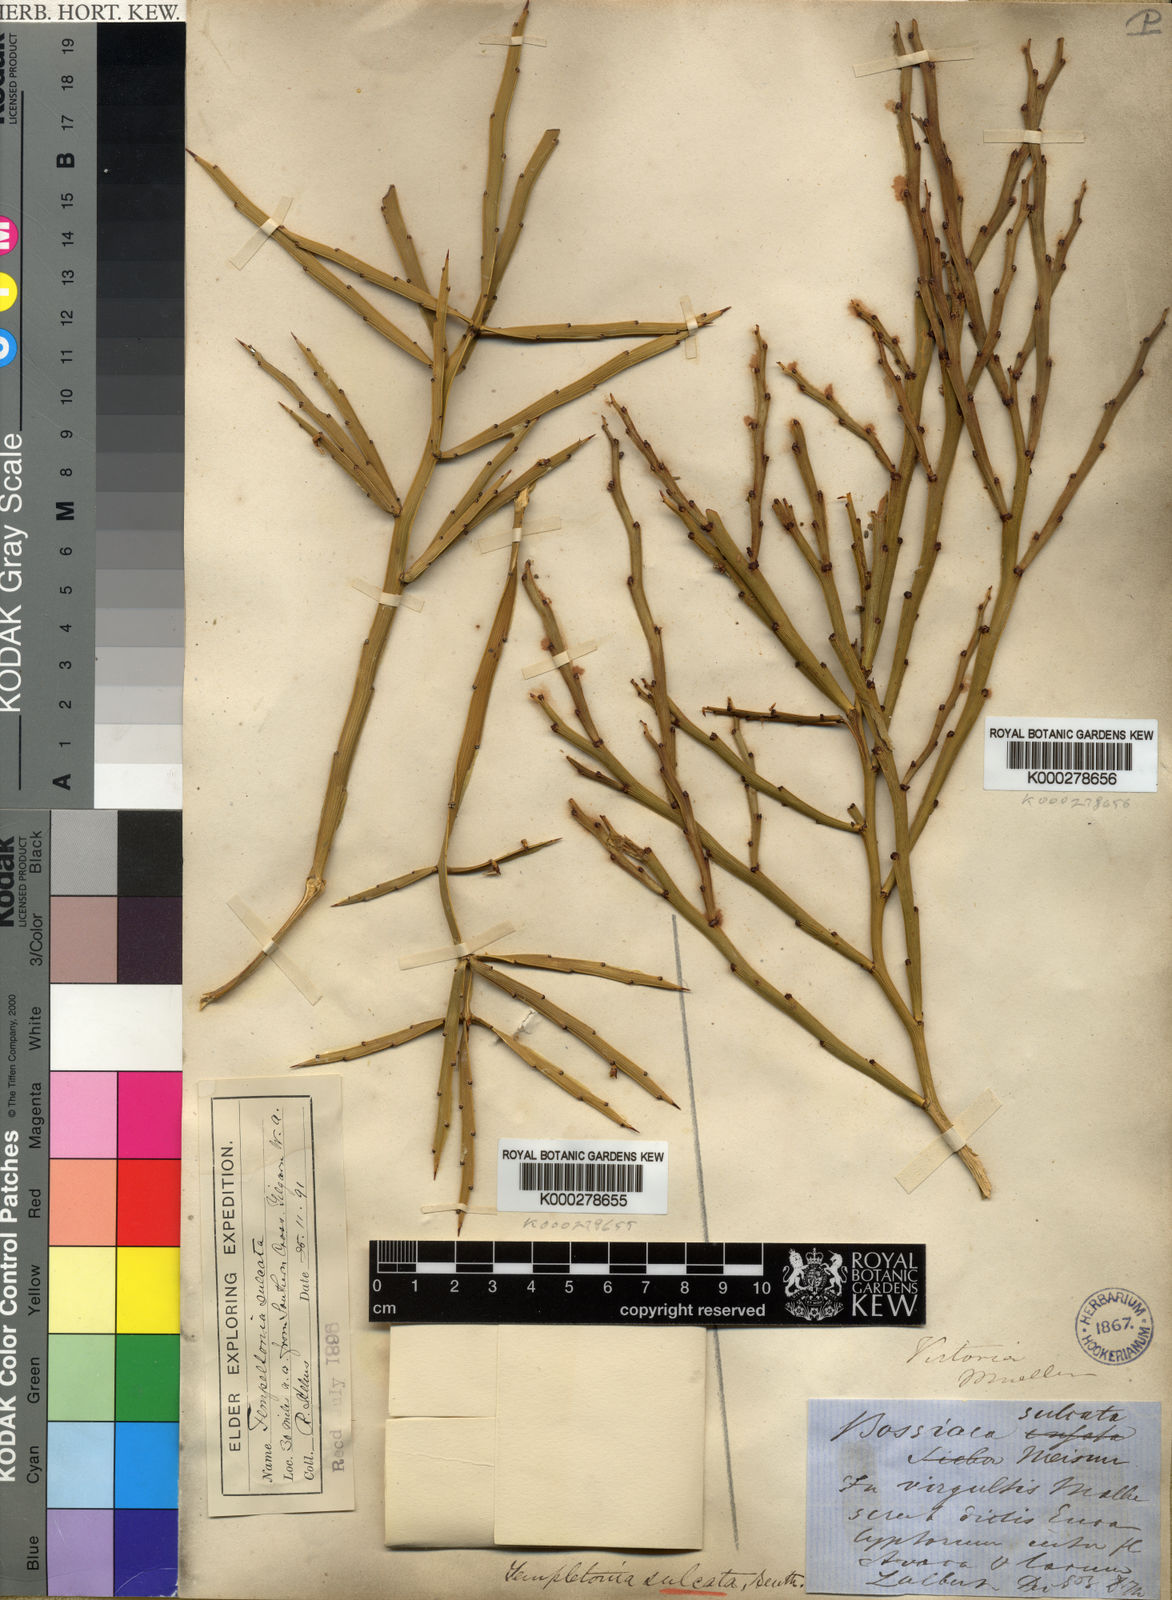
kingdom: Plantae
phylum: Tracheophyta
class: Magnoliopsida
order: Fabales
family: Fabaceae
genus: Templetonia
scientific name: Templetonia sulcata
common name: Flat mallee-pea
